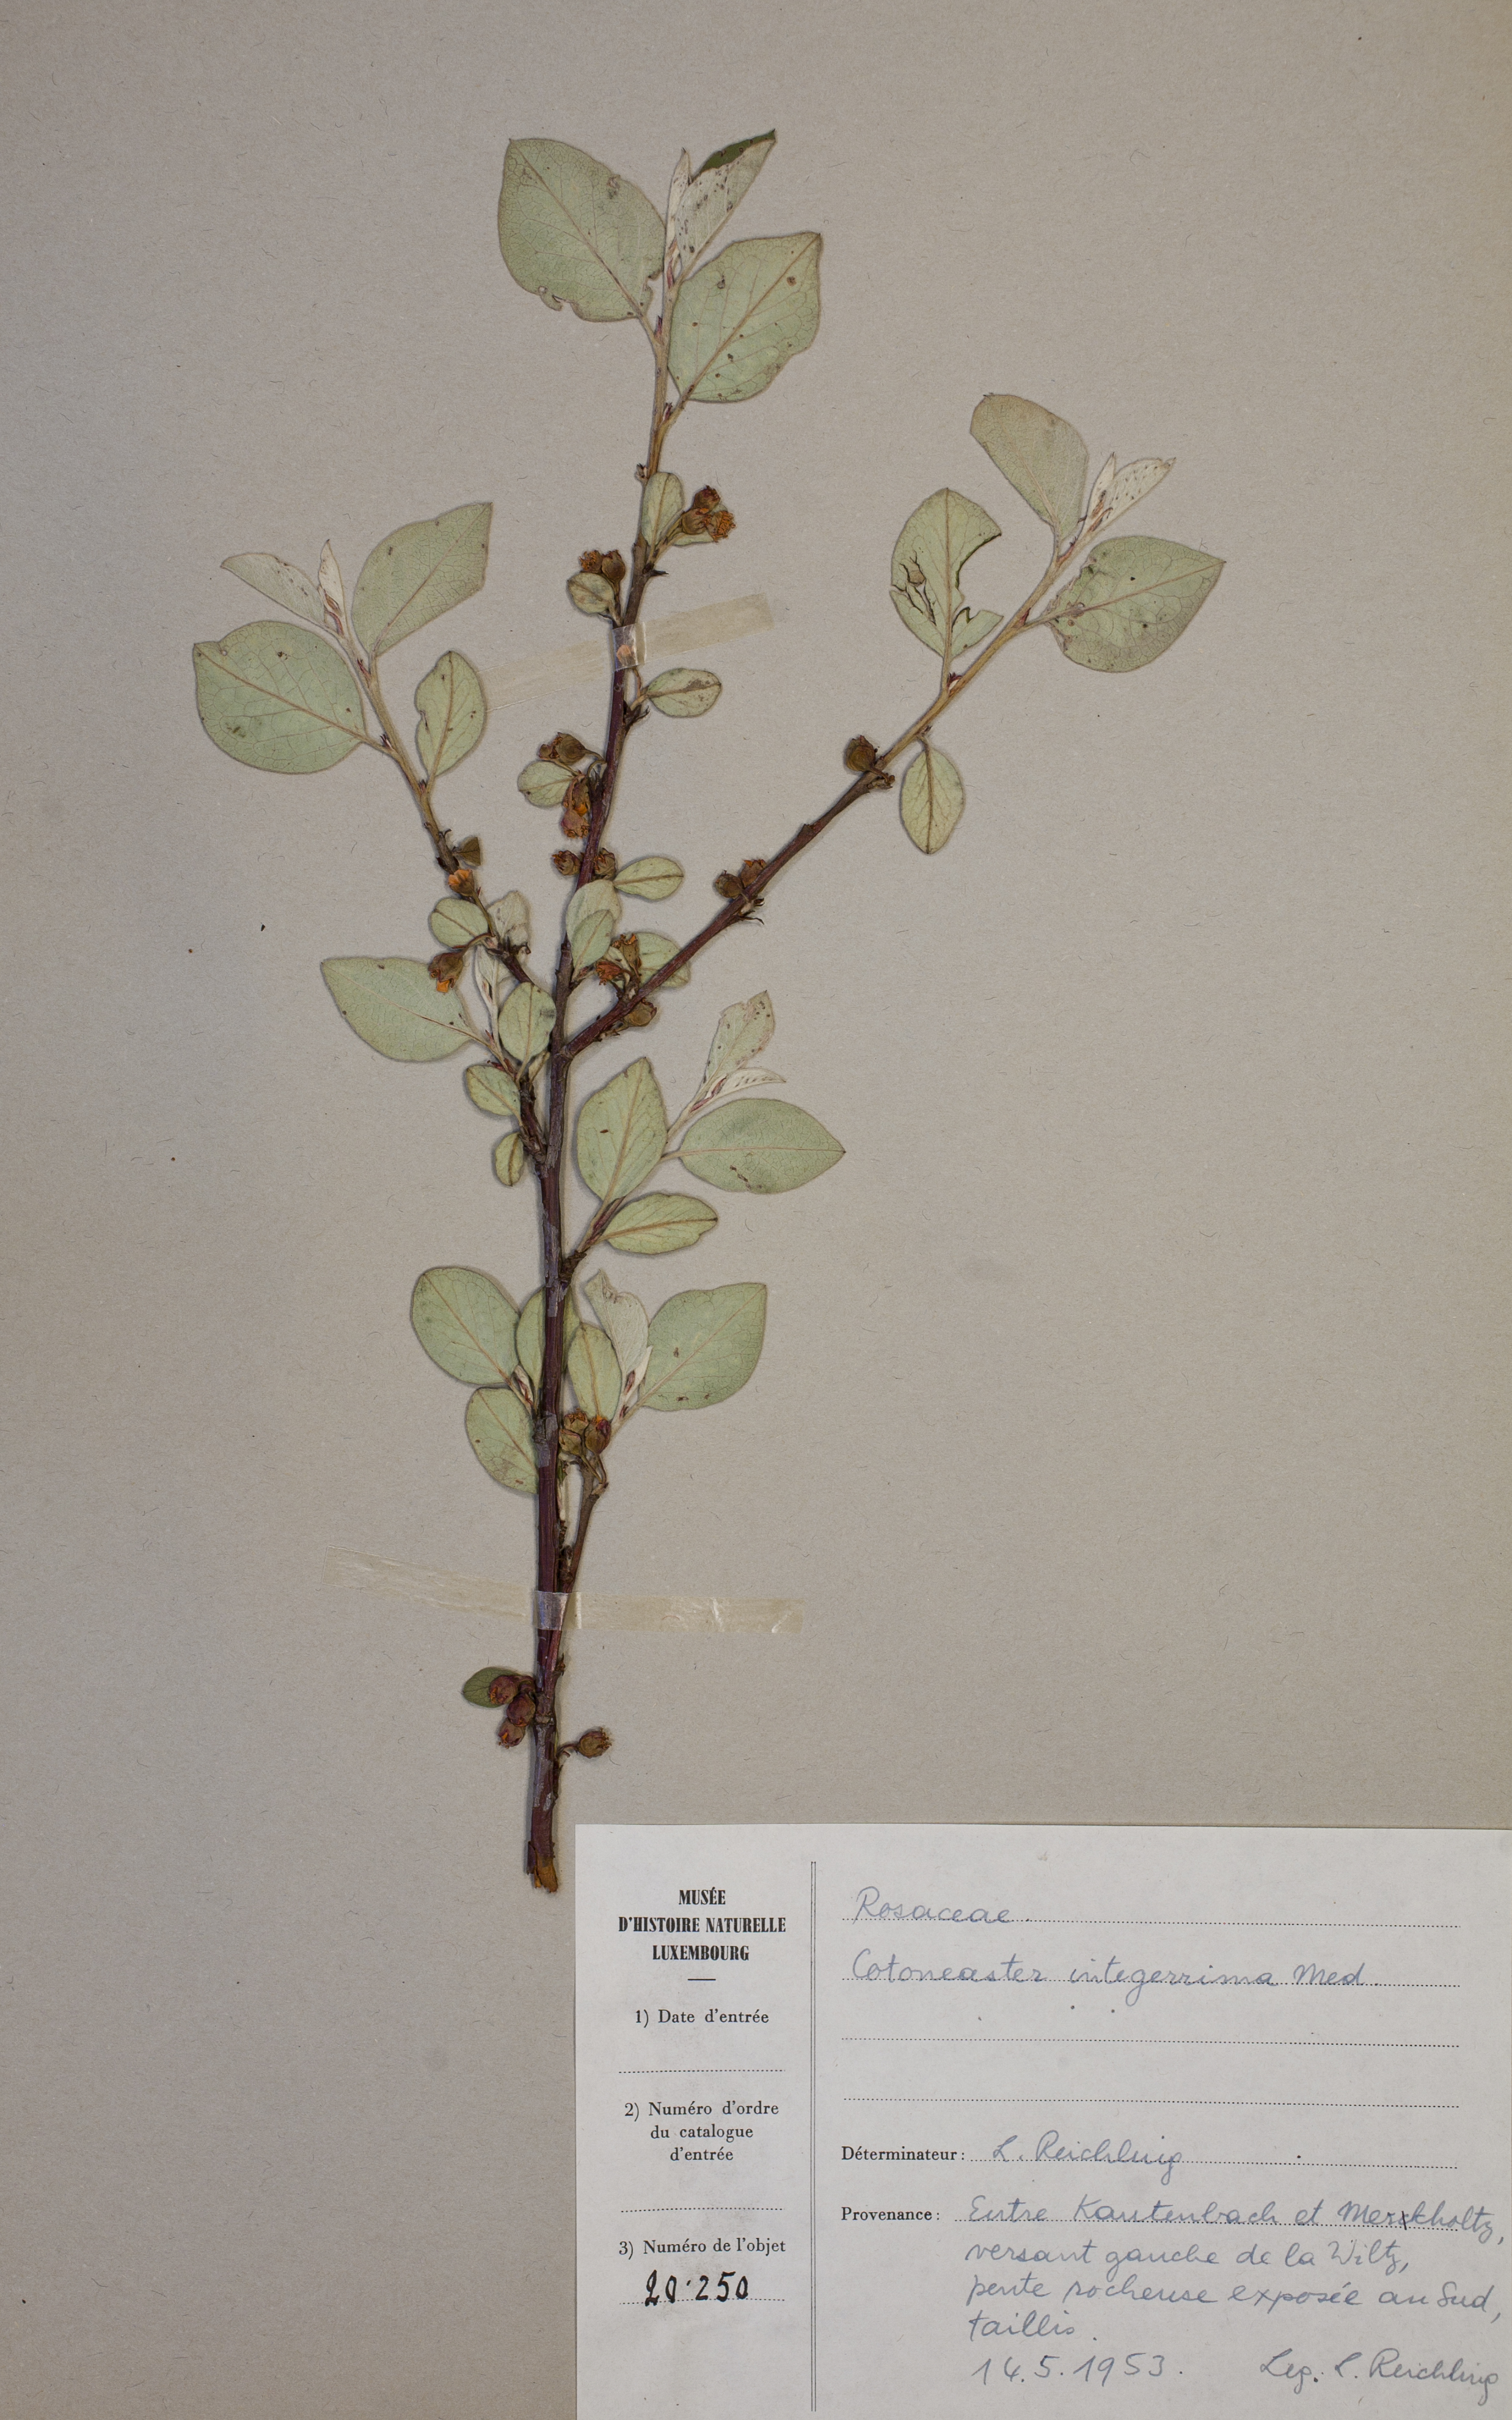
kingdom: Plantae
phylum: Tracheophyta
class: Magnoliopsida
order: Rosales
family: Rosaceae
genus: Cotoneaster
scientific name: Cotoneaster integerrimus
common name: Wild cotoneaster
